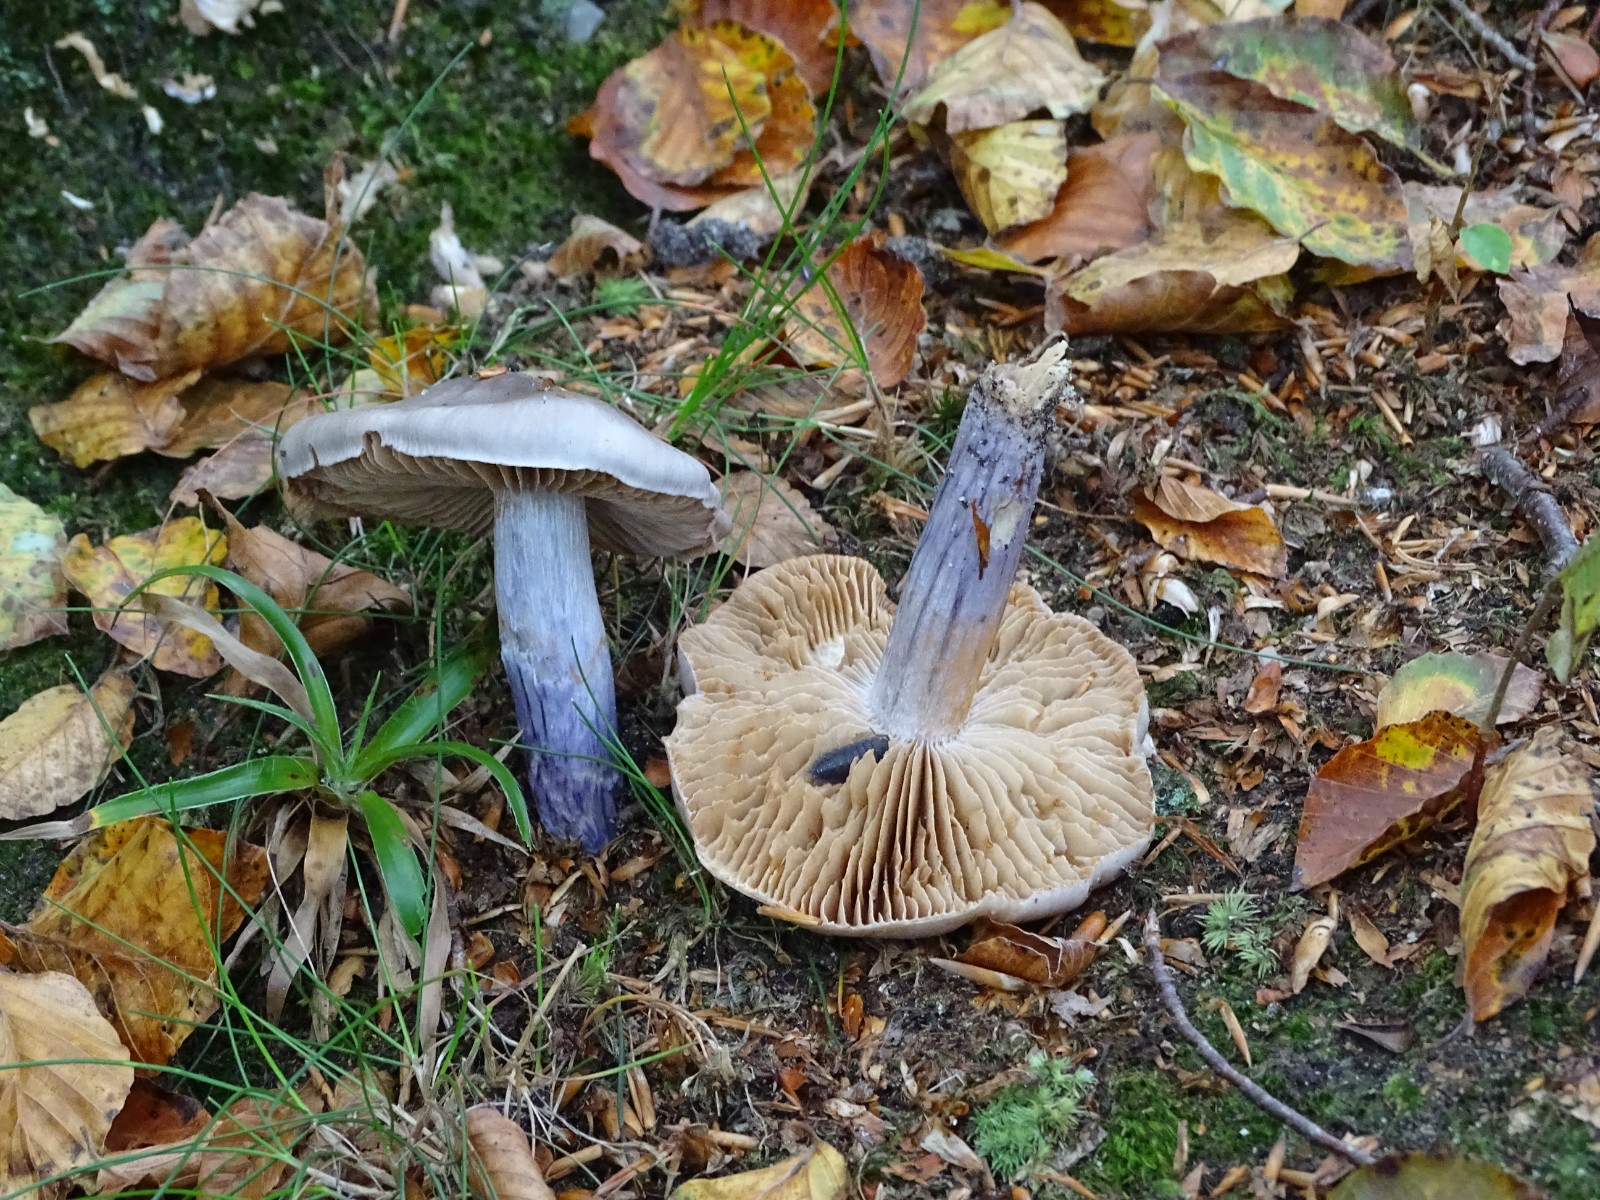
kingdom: Fungi
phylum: Basidiomycota
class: Agaricomycetes
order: Agaricales
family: Cortinariaceae
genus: Cortinarius
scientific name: Cortinarius elatior
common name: høj slørhat
